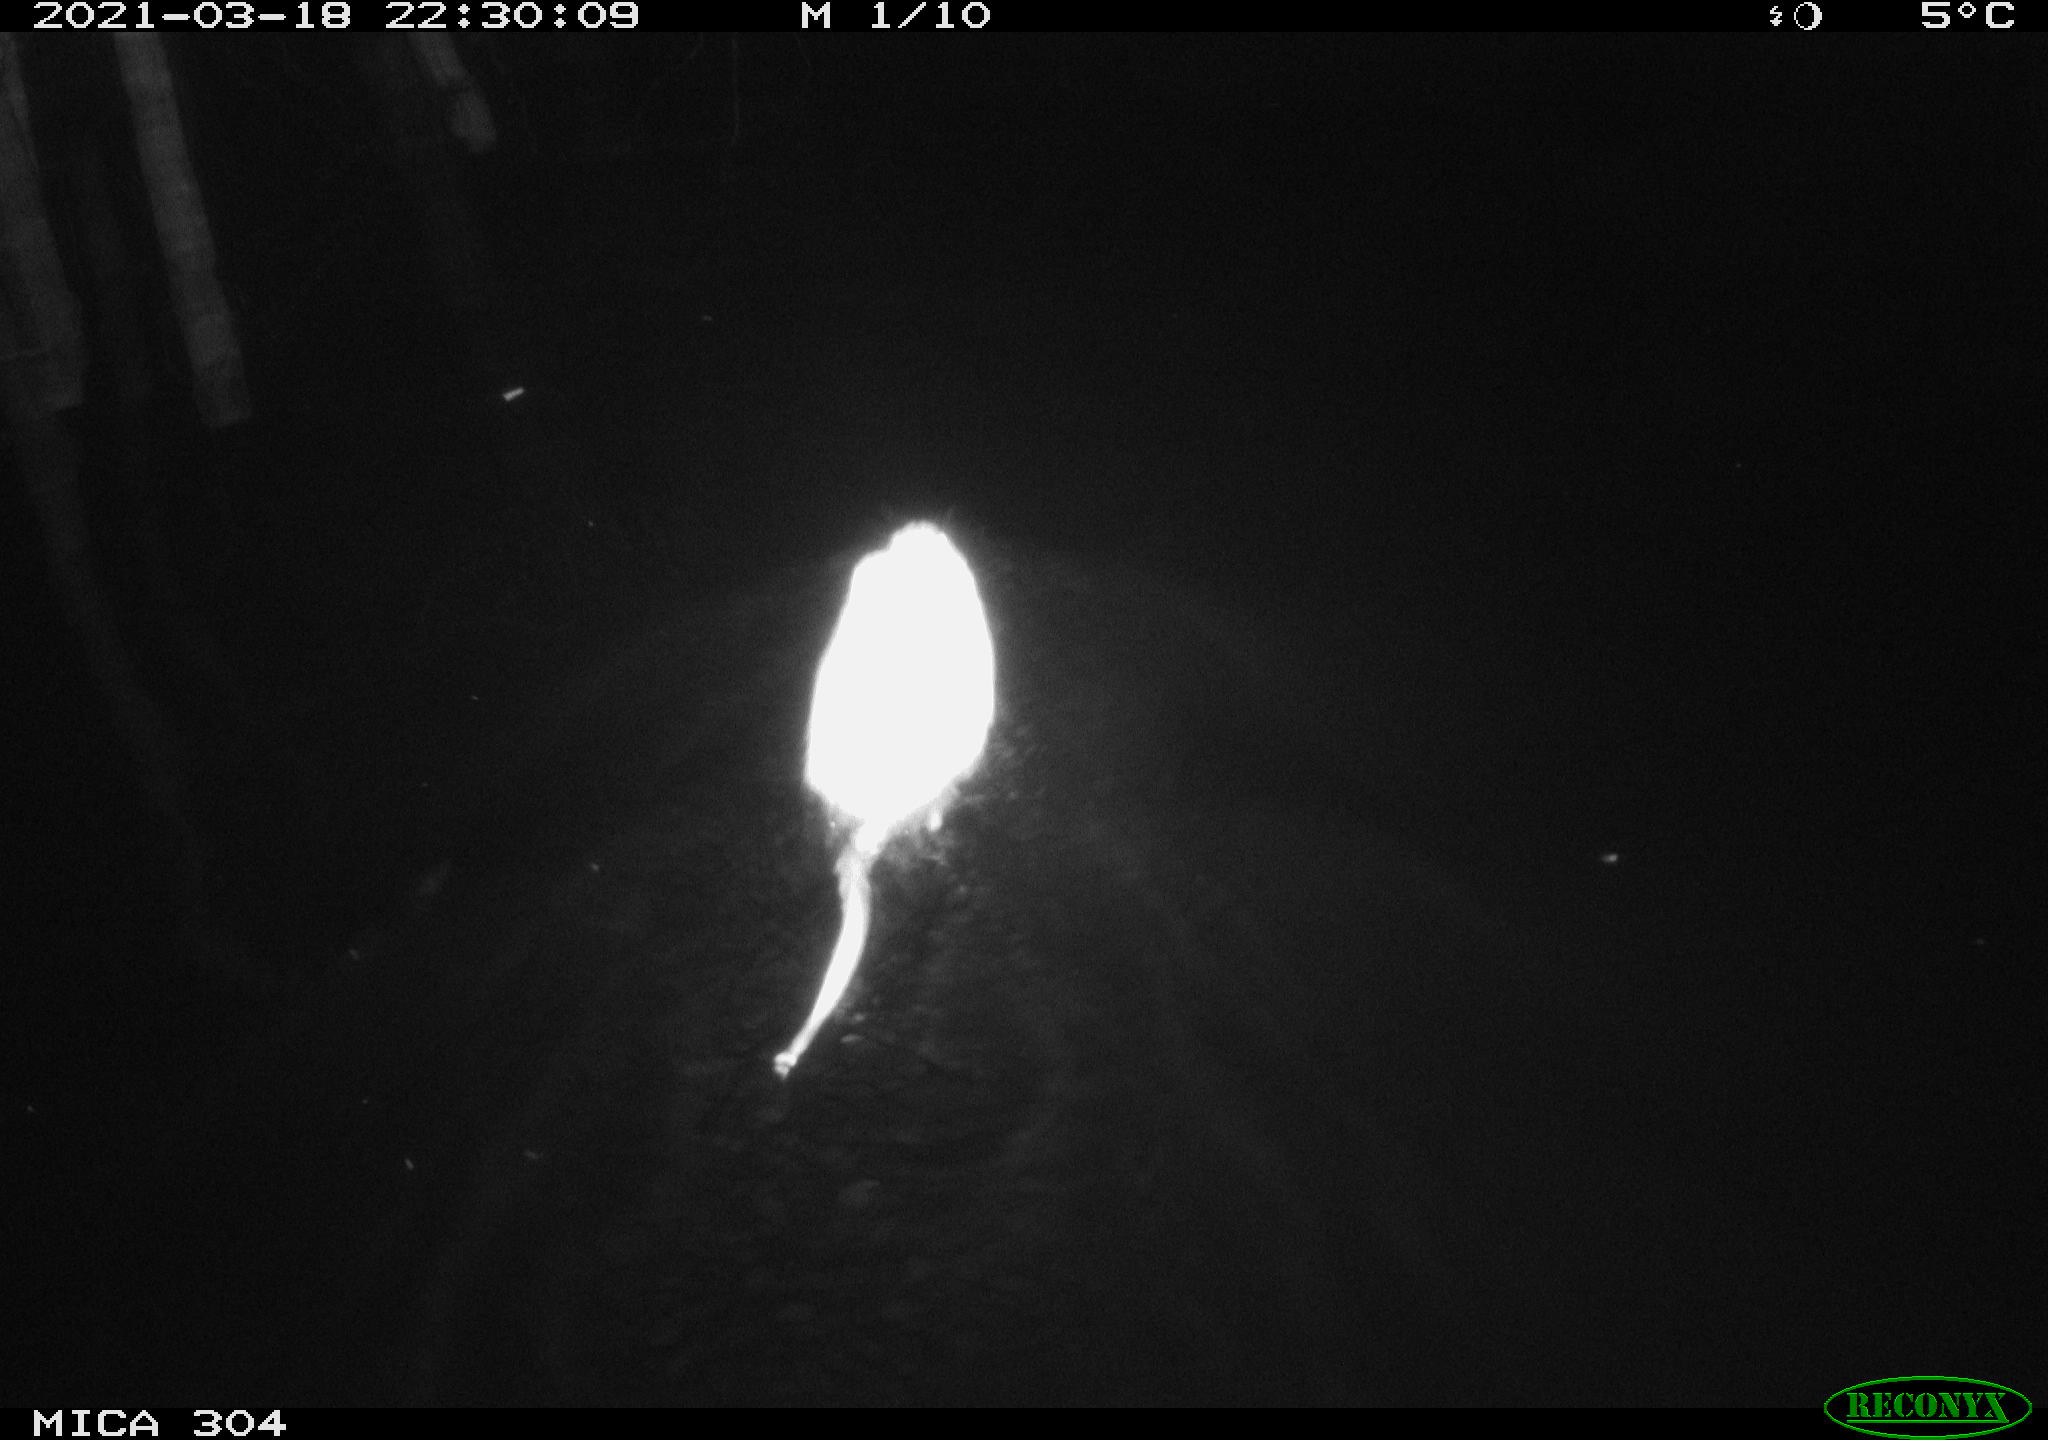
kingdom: Animalia
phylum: Chordata
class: Mammalia
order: Rodentia
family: Cricetidae
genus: Ondatra
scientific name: Ondatra zibethicus
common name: Muskrat
